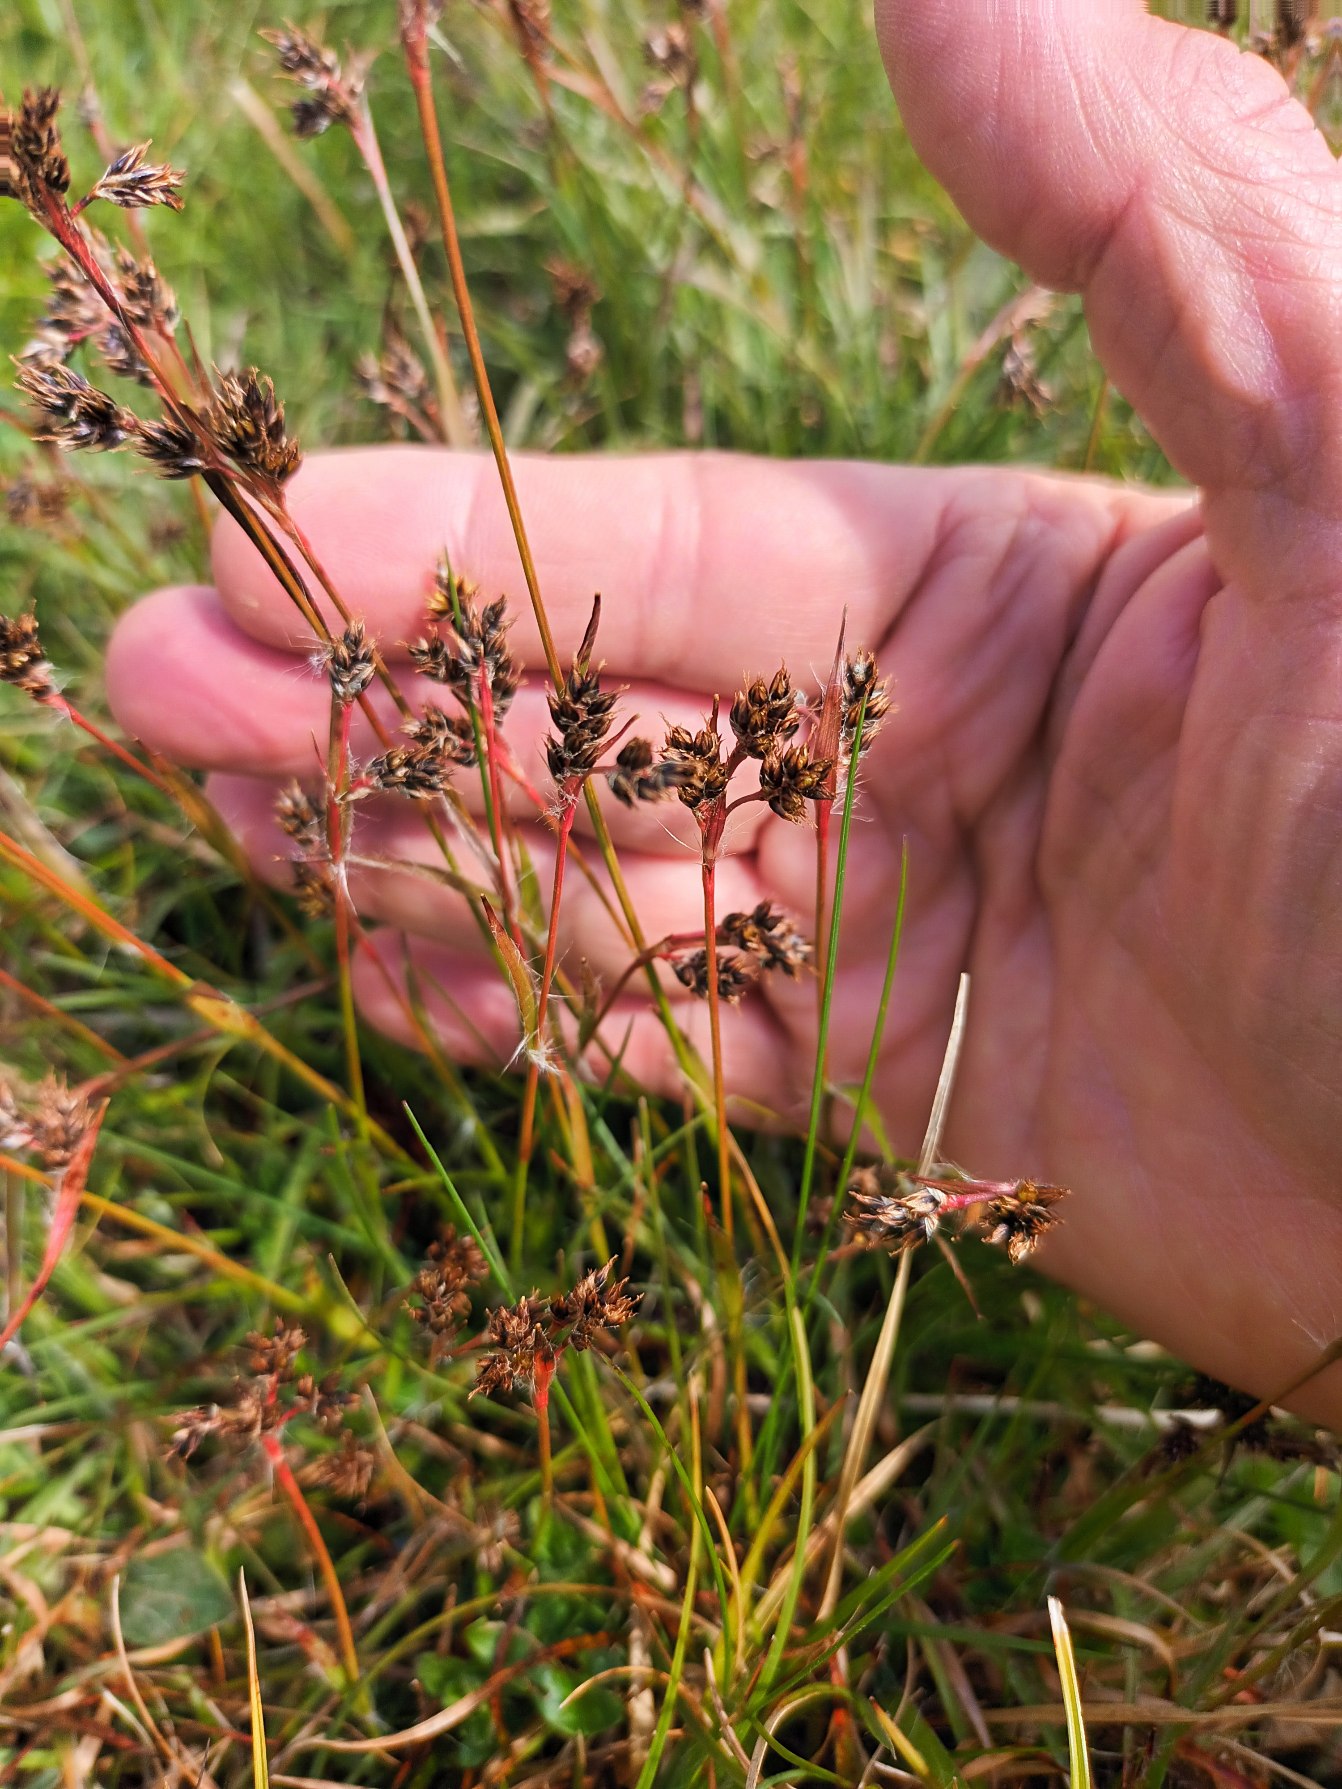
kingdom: Plantae
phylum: Tracheophyta
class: Liliopsida
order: Poales
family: Juncaceae
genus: Luzula
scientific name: Luzula campestris
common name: Mark-frytle
